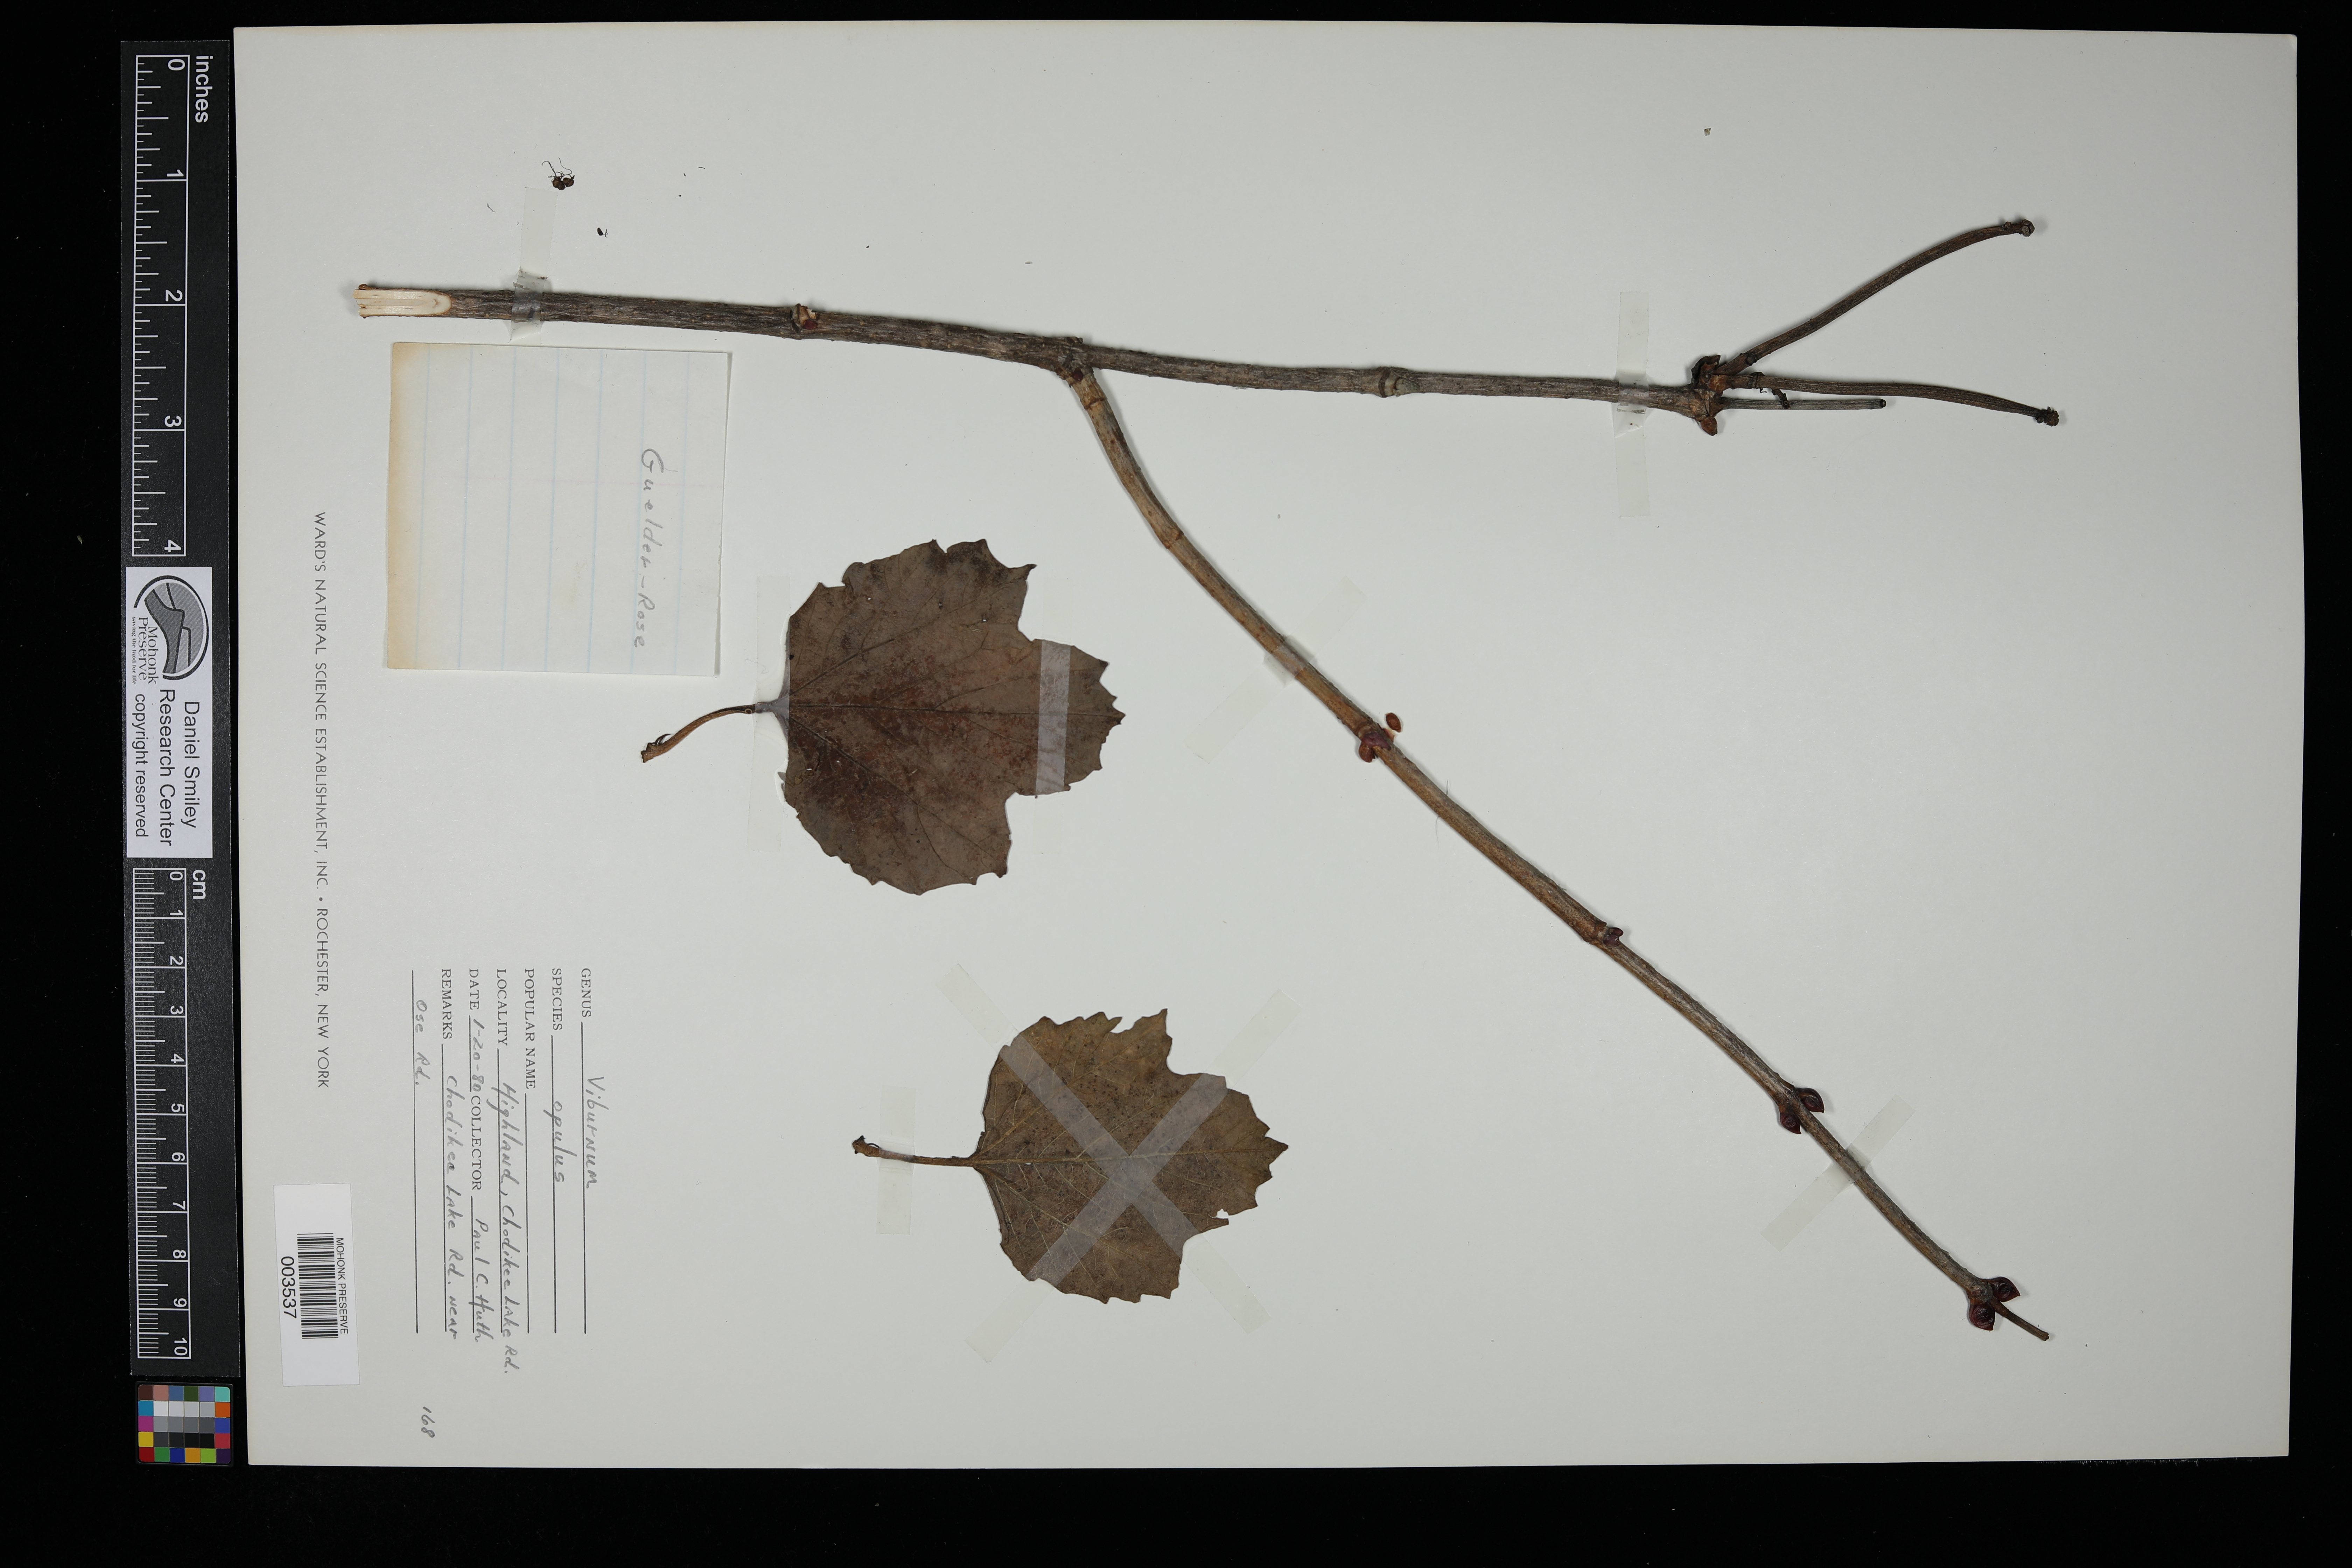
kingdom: Plantae
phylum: Tracheophyta
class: Magnoliopsida
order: Dipsacales
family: Viburnaceae
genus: Viburnum
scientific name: Viburnum opulus
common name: Guelder-rose
